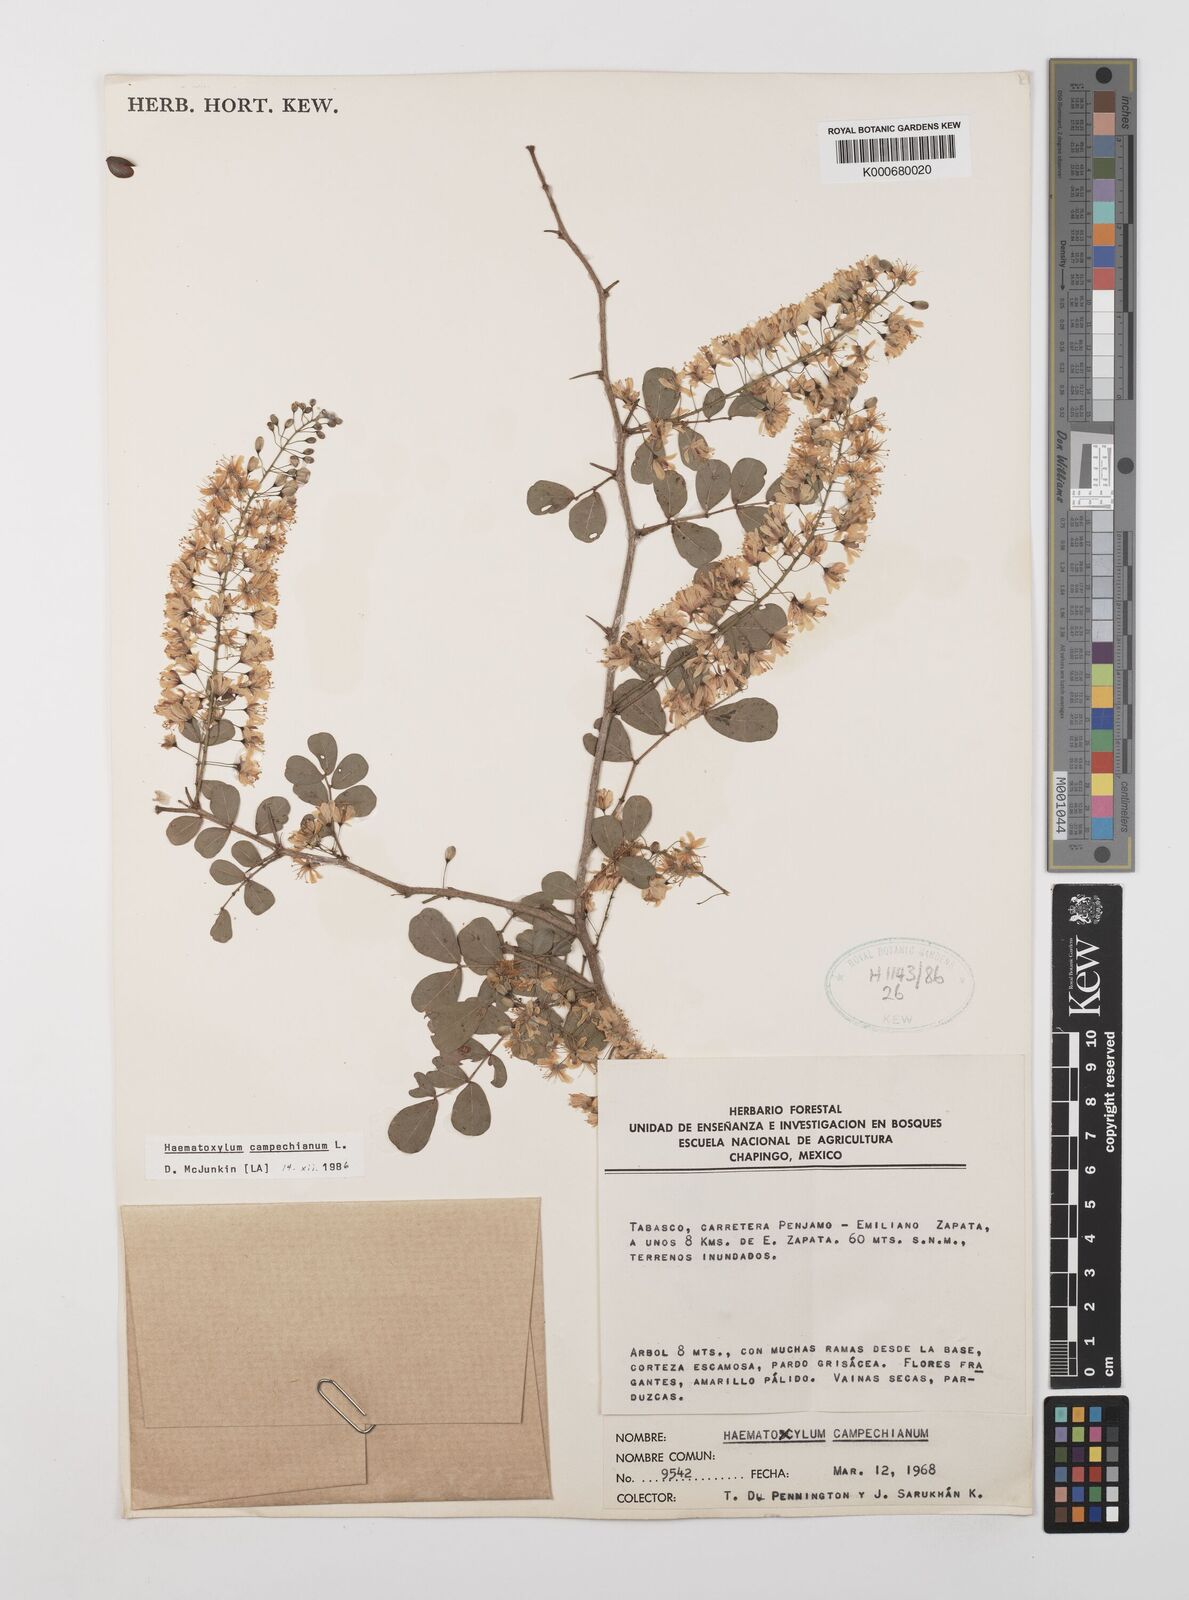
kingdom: Plantae
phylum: Tracheophyta
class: Magnoliopsida
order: Fabales
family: Fabaceae
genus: Haematoxylum
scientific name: Haematoxylum
